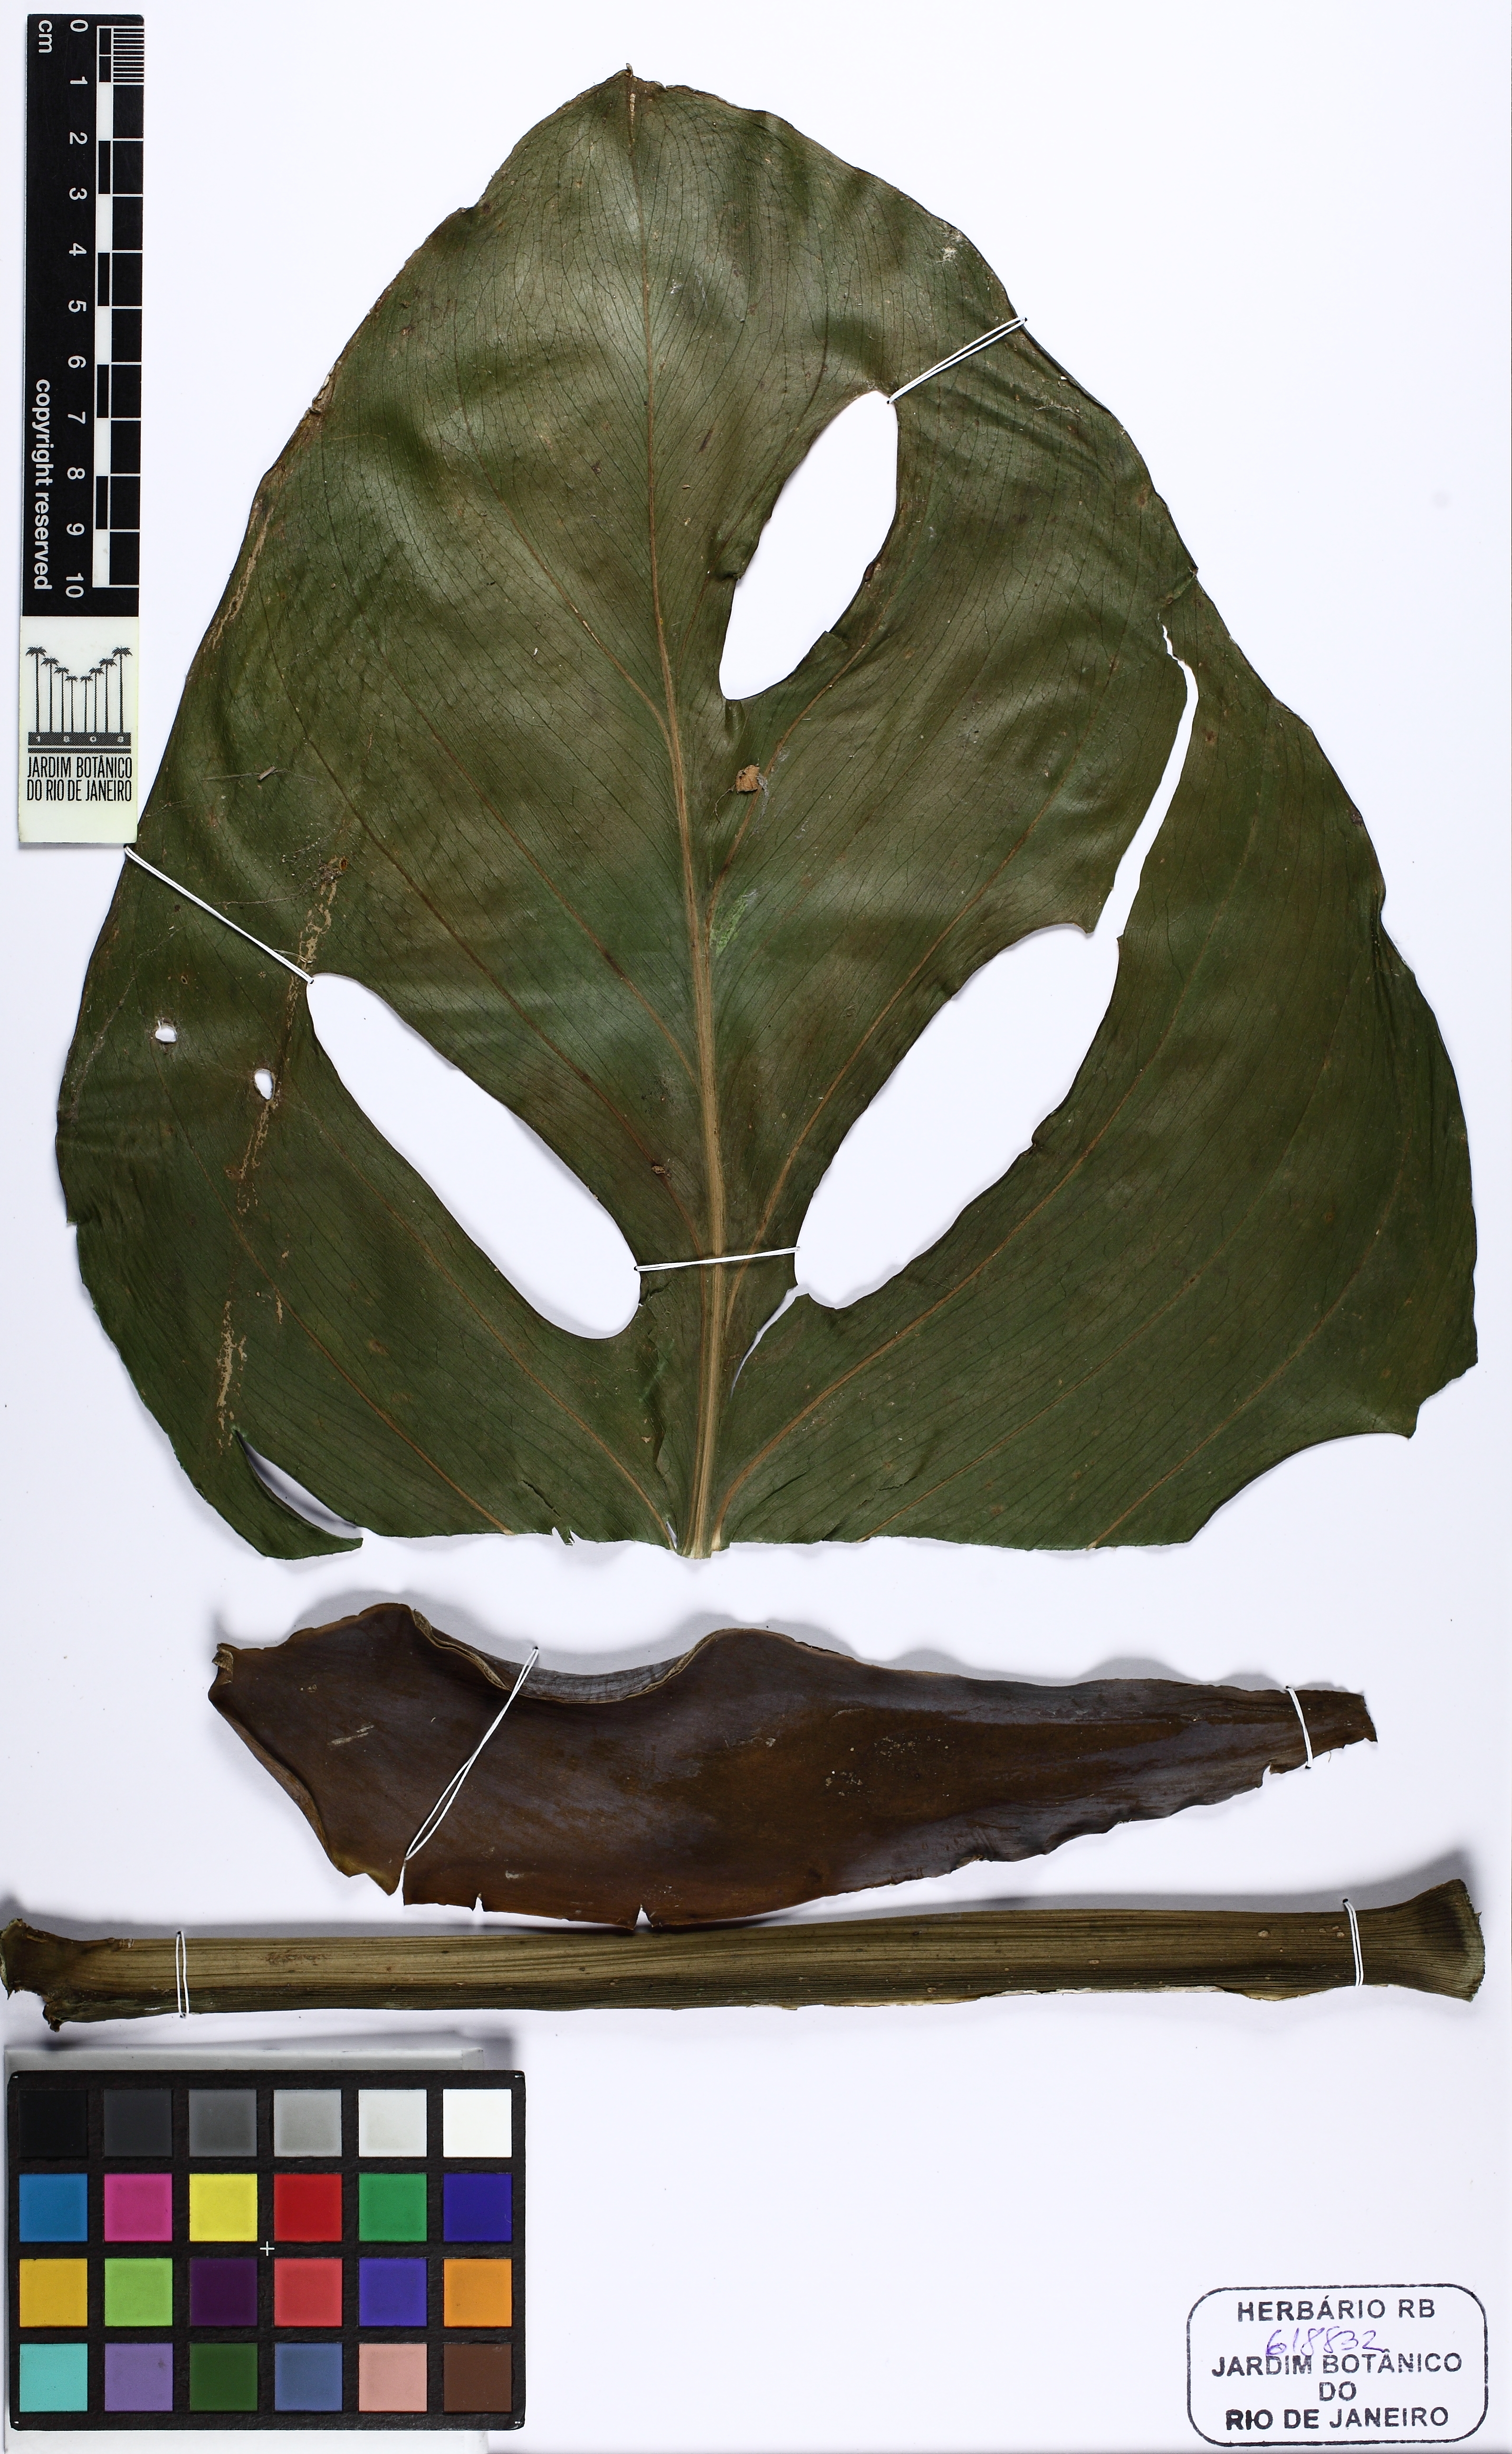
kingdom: Plantae
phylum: Tracheophyta
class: Liliopsida
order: Alismatales
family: Araceae
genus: Monstera
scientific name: Monstera adansonii
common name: Tarovine
